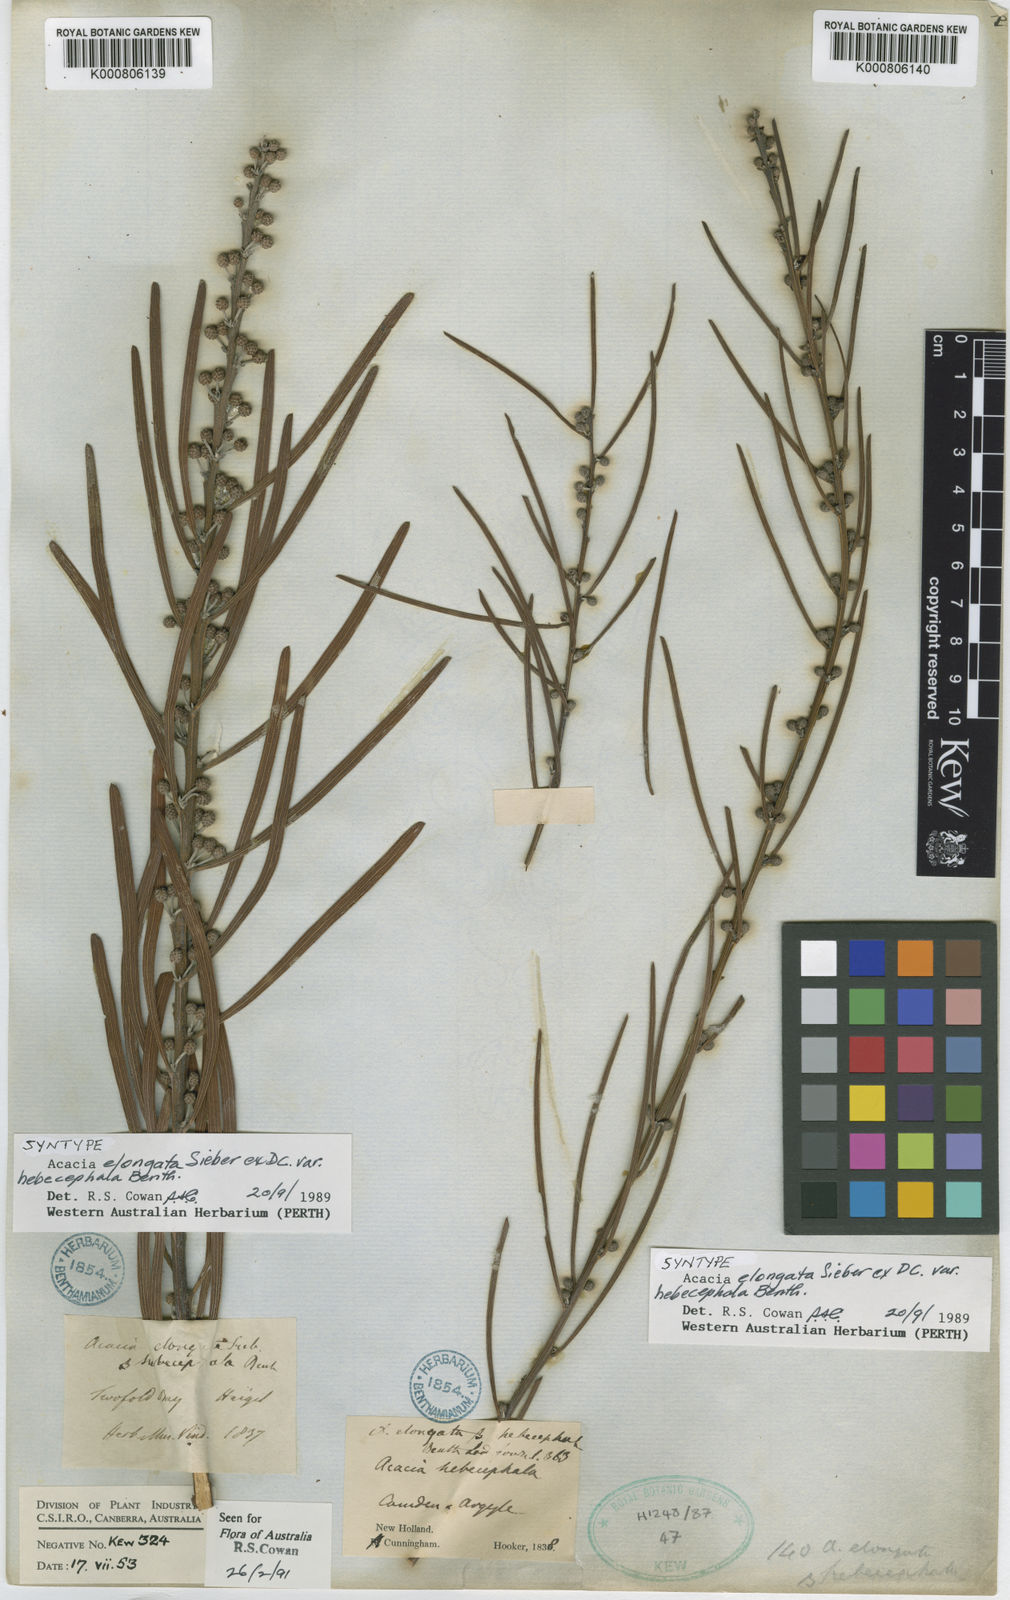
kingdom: Plantae
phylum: Tracheophyta
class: Magnoliopsida
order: Fabales
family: Fabaceae
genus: Acacia
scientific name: Acacia elongata
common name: Swamp wattle
